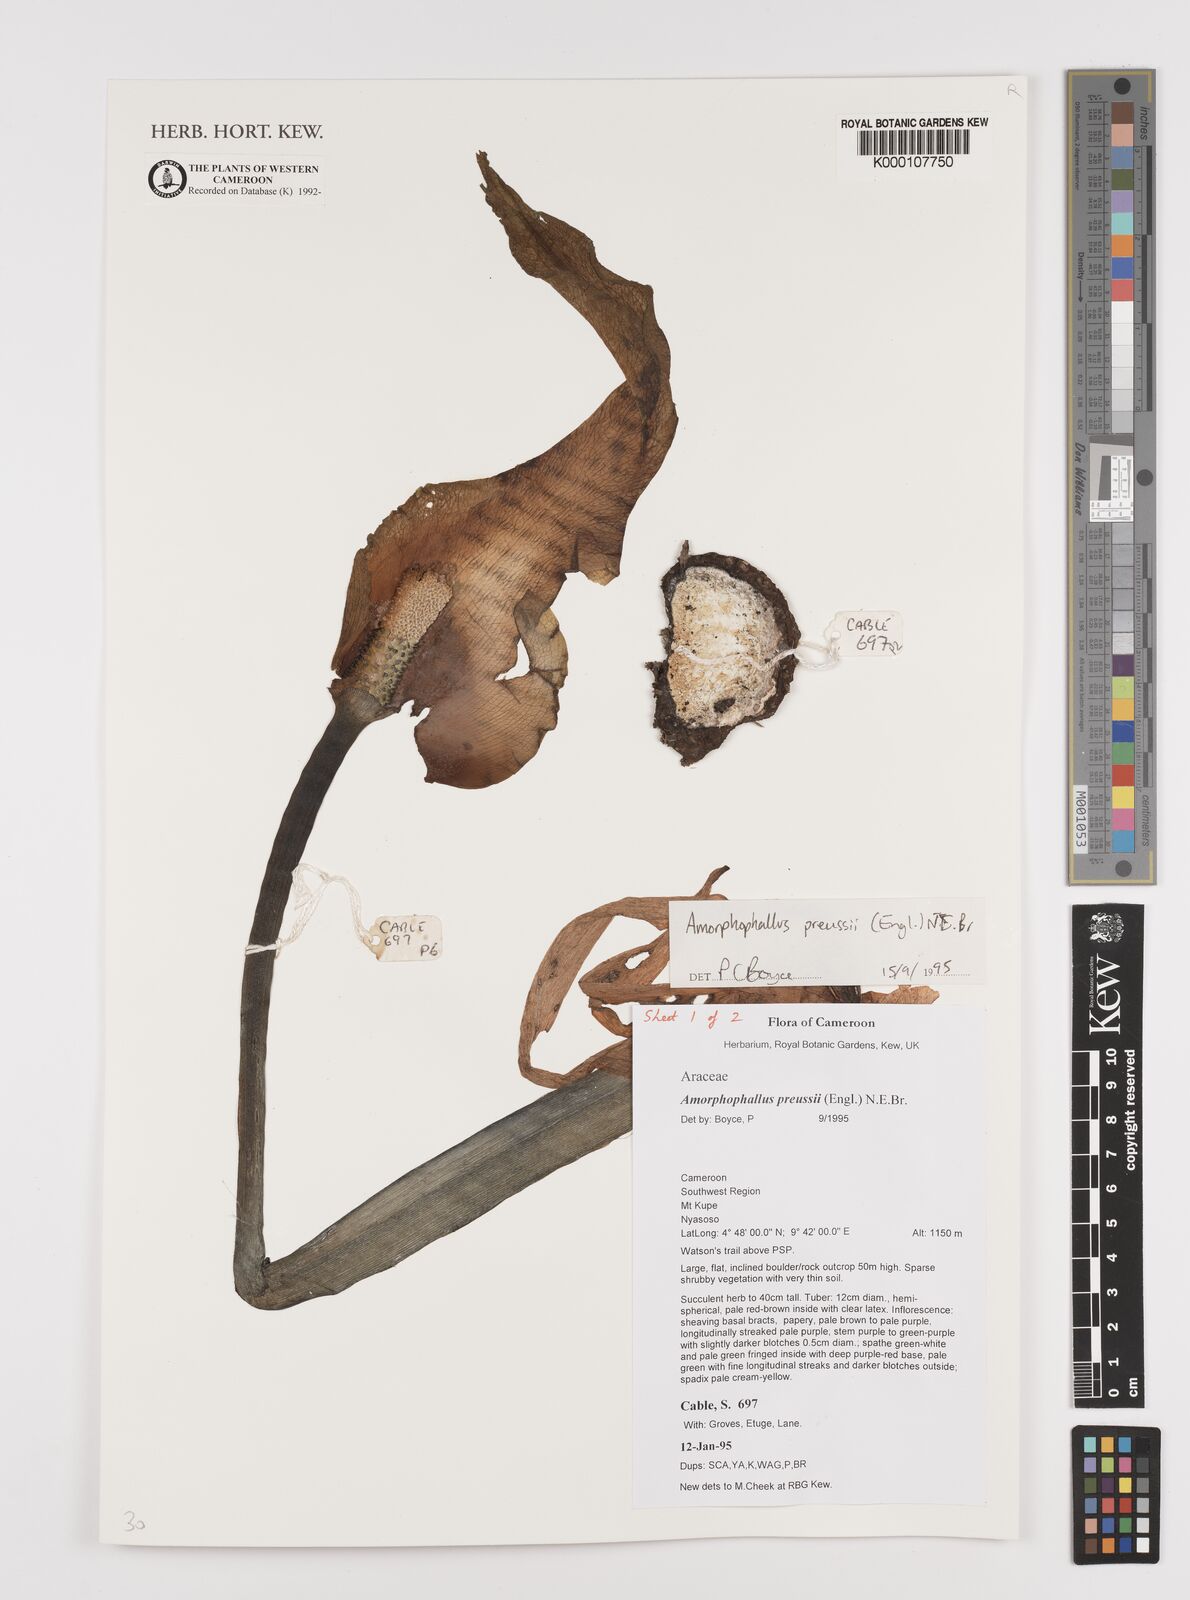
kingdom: Plantae
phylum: Tracheophyta
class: Liliopsida
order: Alismatales
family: Araceae
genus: Amorphophallus
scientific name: Amorphophallus preussii
